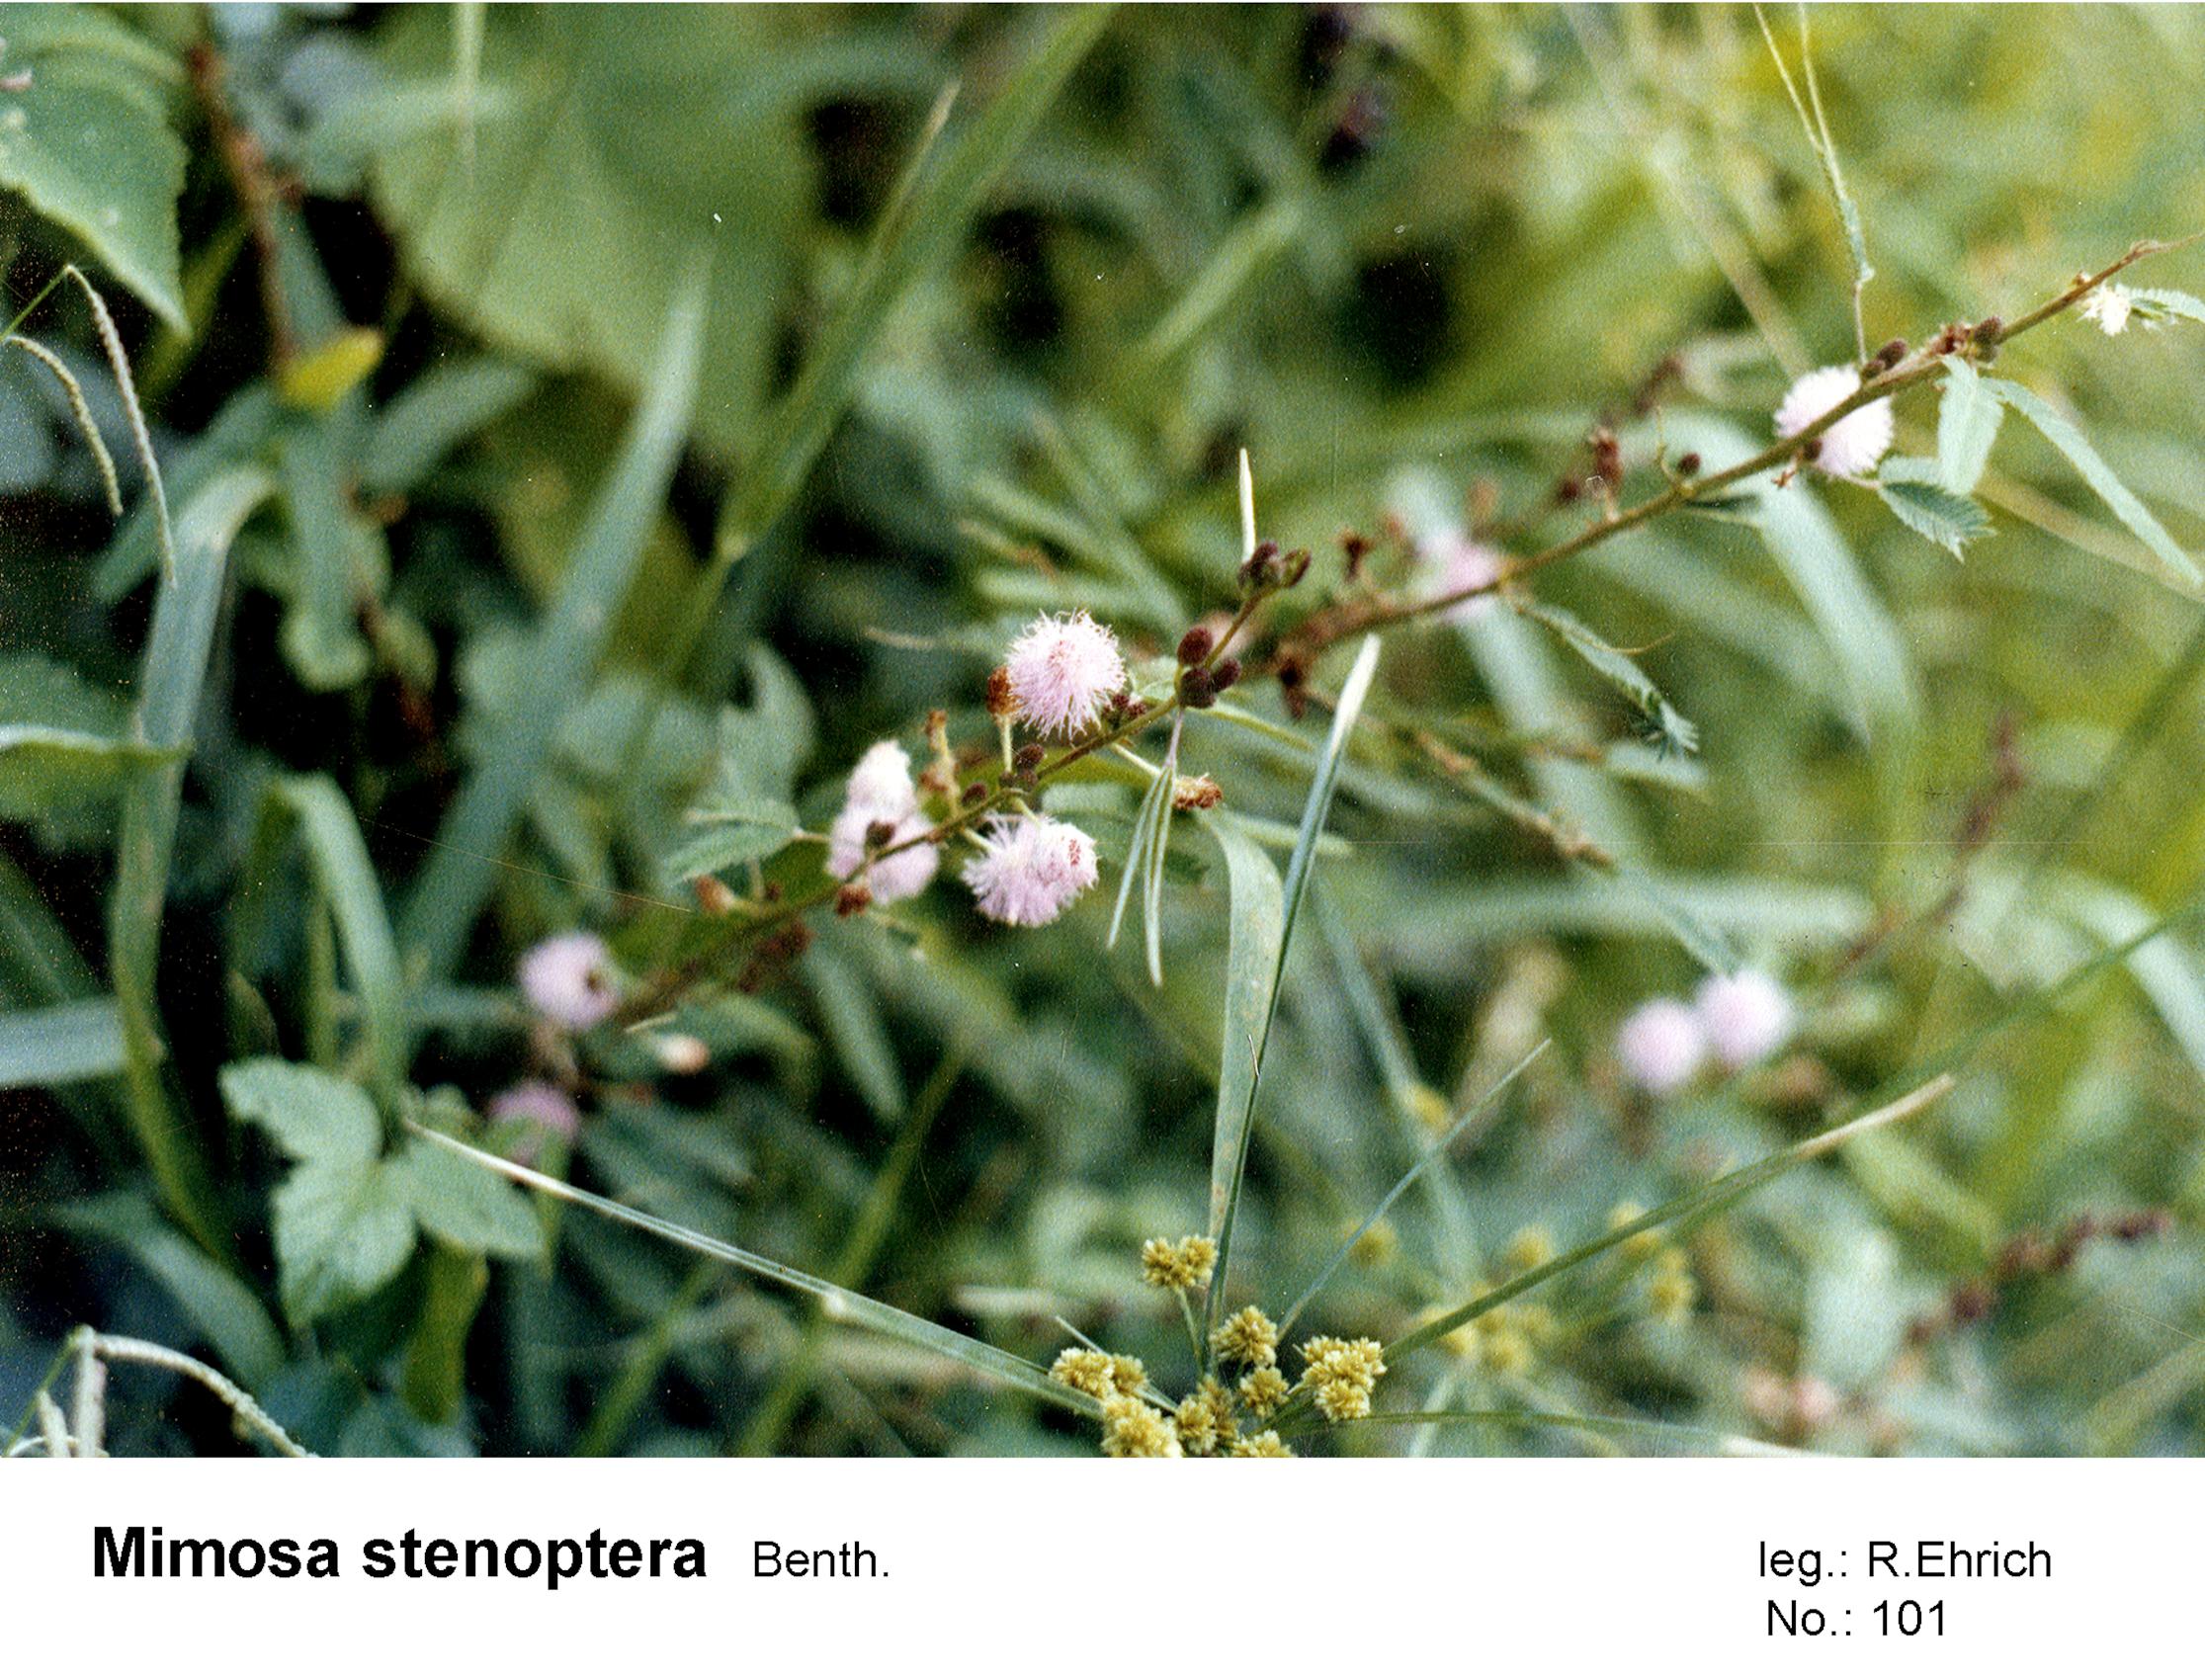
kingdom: Plantae
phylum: Tracheophyta
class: Magnoliopsida
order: Fabales
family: Fabaceae
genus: Mimosa
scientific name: Mimosa xanthocentra
